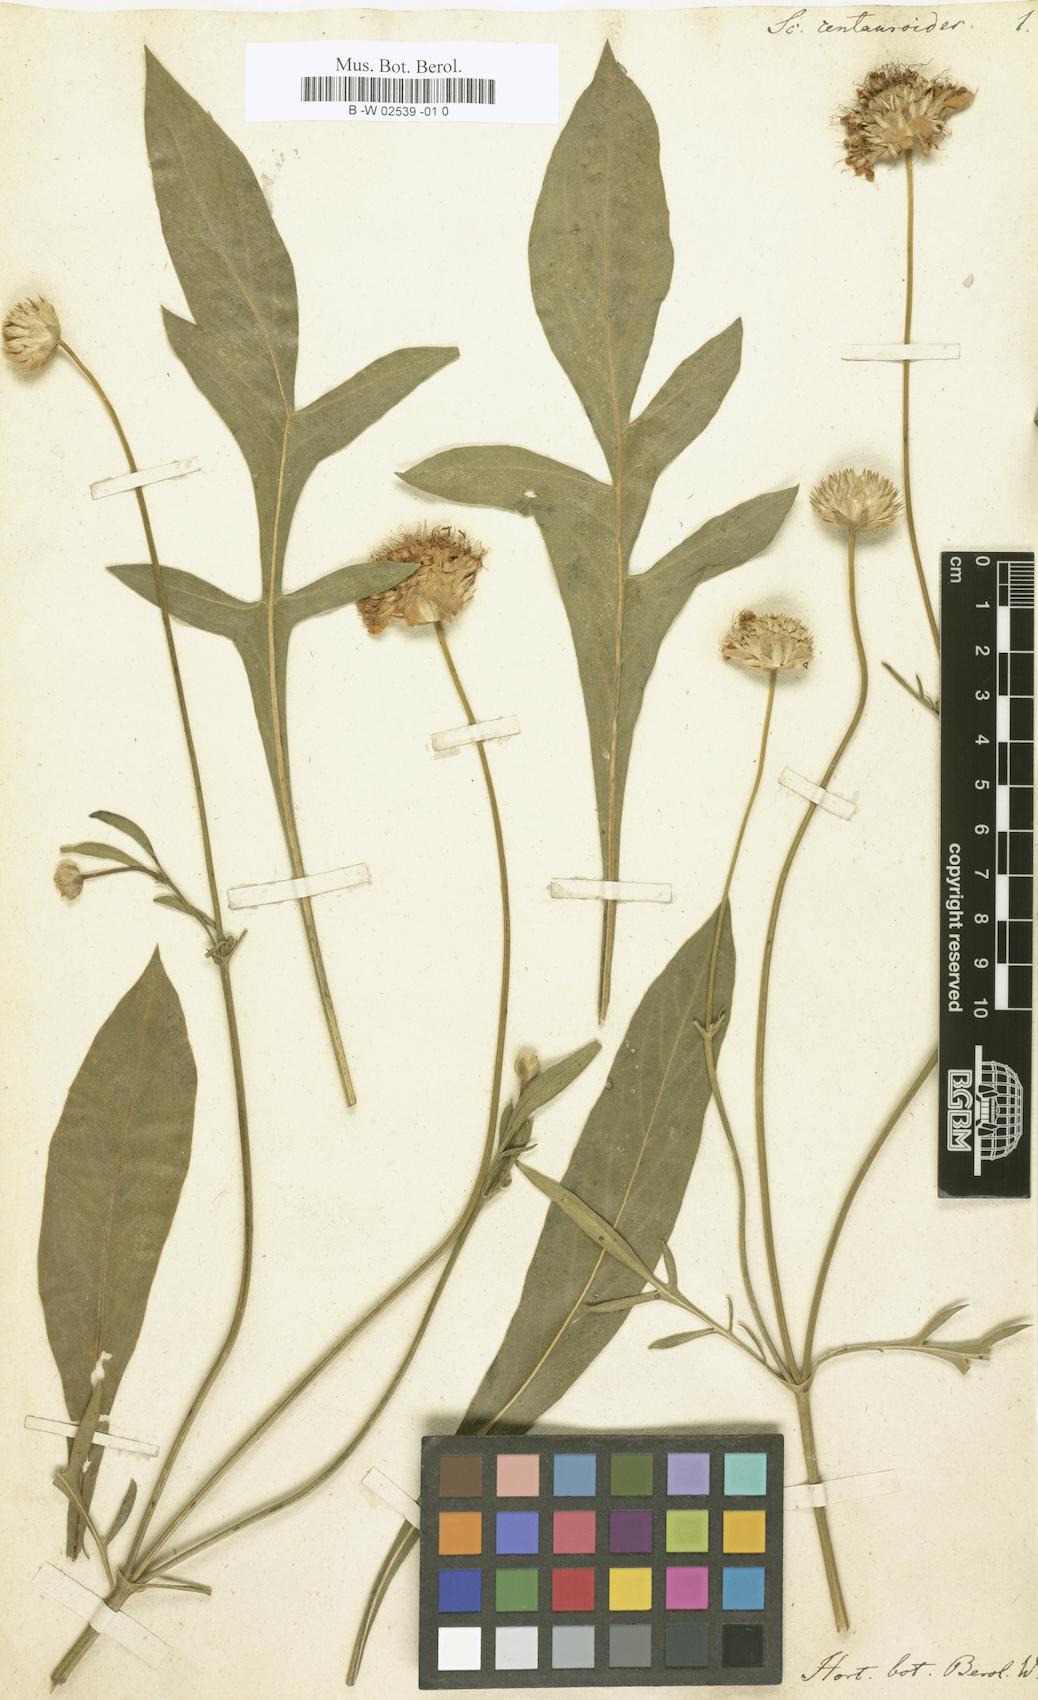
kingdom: Plantae
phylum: Tracheophyta
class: Magnoliopsida
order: Dipsacales
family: Caprifoliaceae
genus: Cephalaria
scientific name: Cephalaria uralensis
